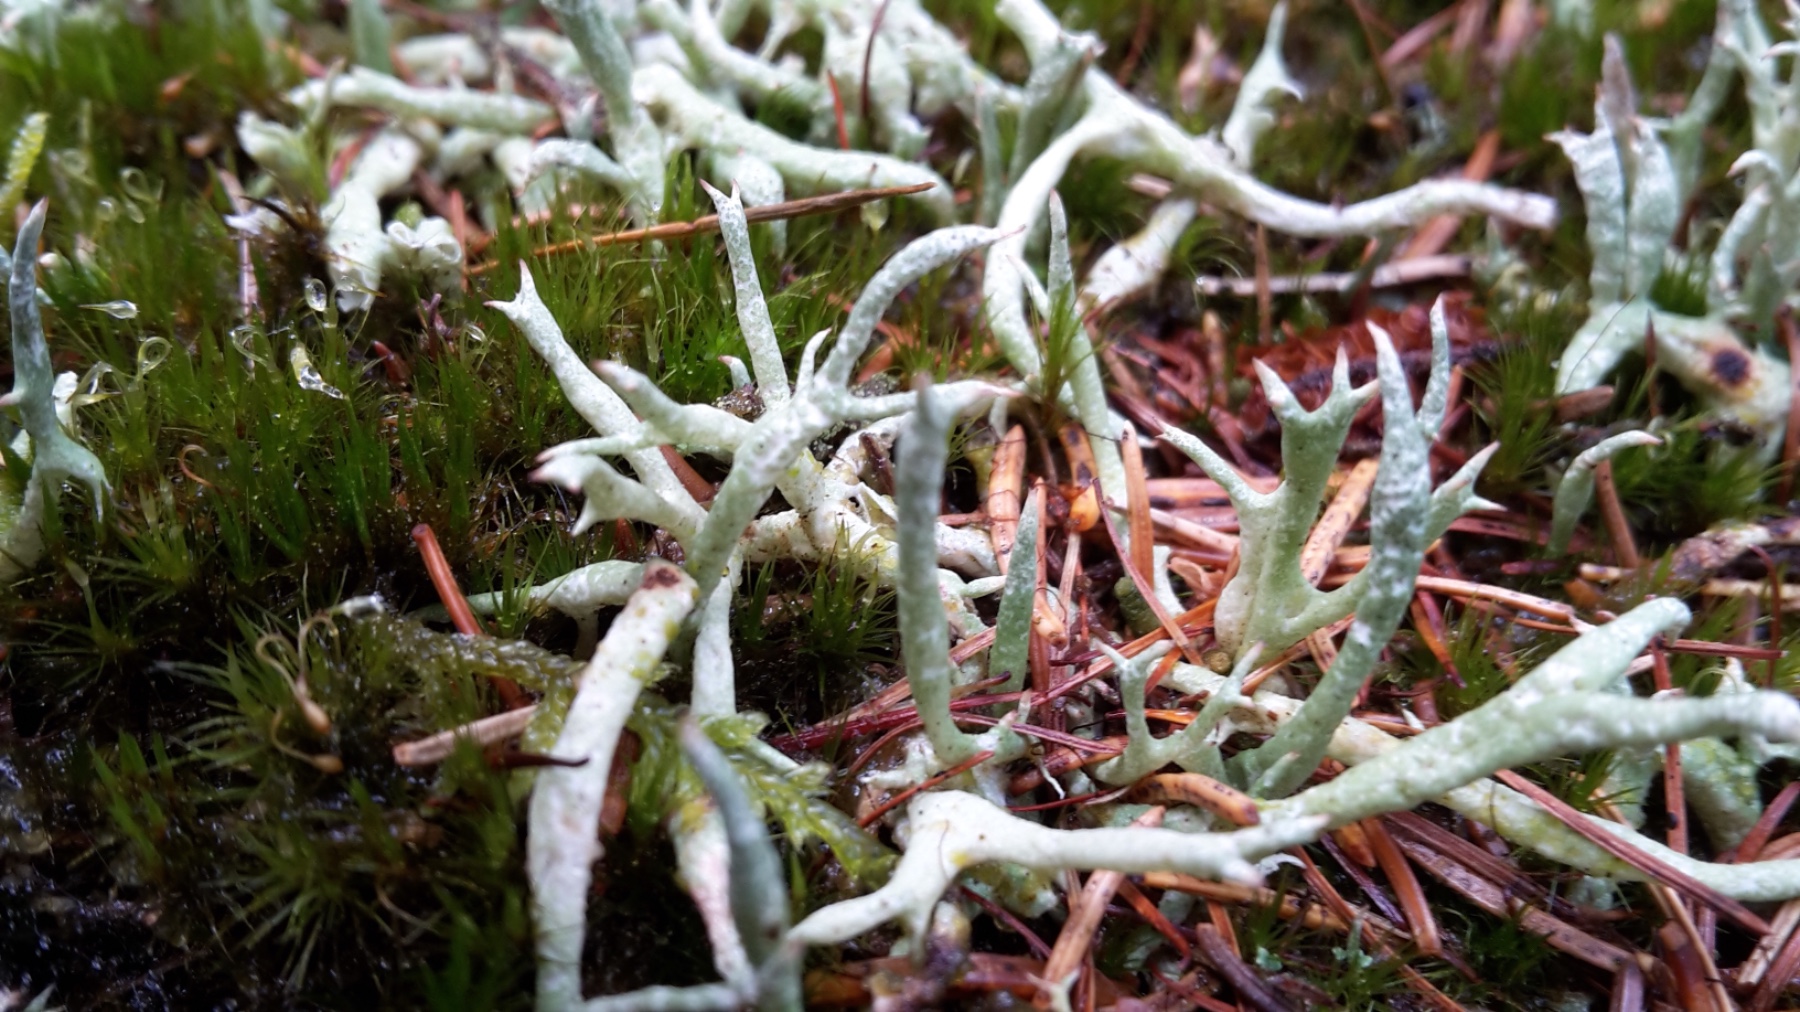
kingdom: Fungi
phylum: Ascomycota
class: Lecanoromycetes
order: Lecanorales
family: Cladoniaceae
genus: Cladonia
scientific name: Cladonia uncialis
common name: pigget bægerlav
